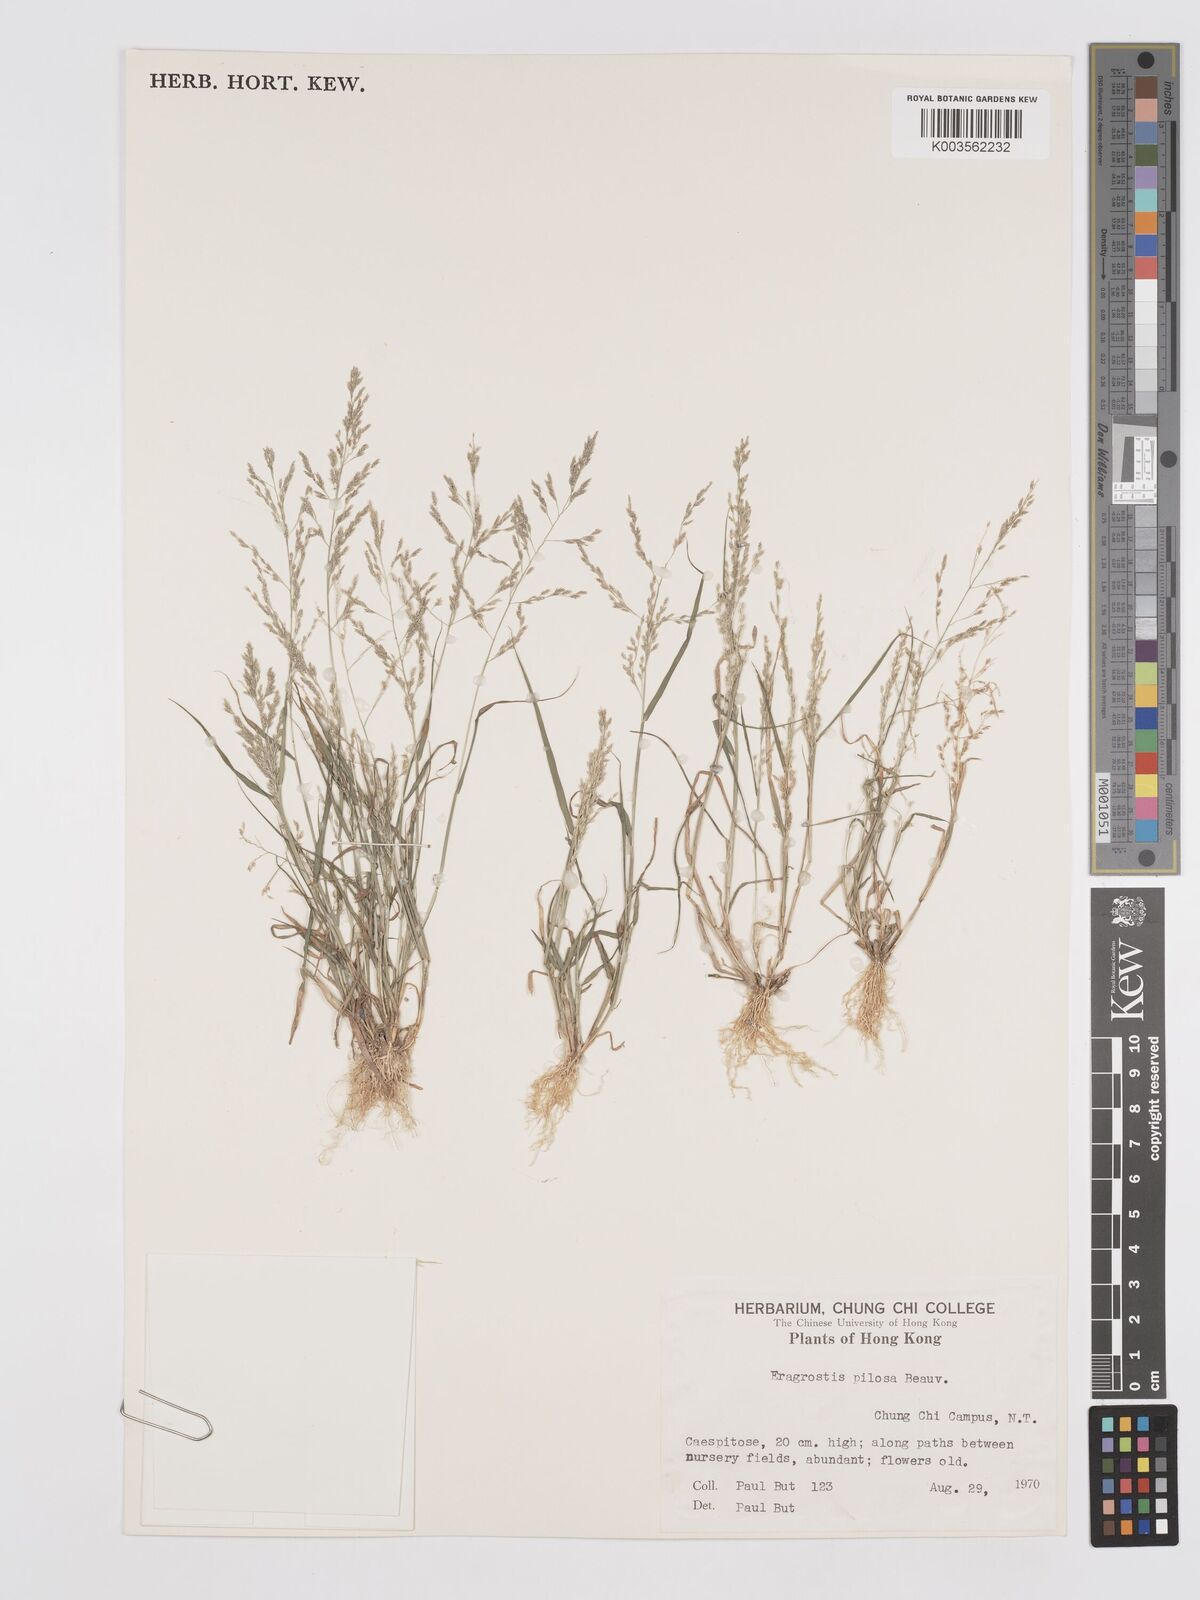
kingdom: Plantae
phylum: Tracheophyta
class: Liliopsida
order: Poales
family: Poaceae
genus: Eragrostis
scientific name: Eragrostis pilosa
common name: Indian lovegrass
